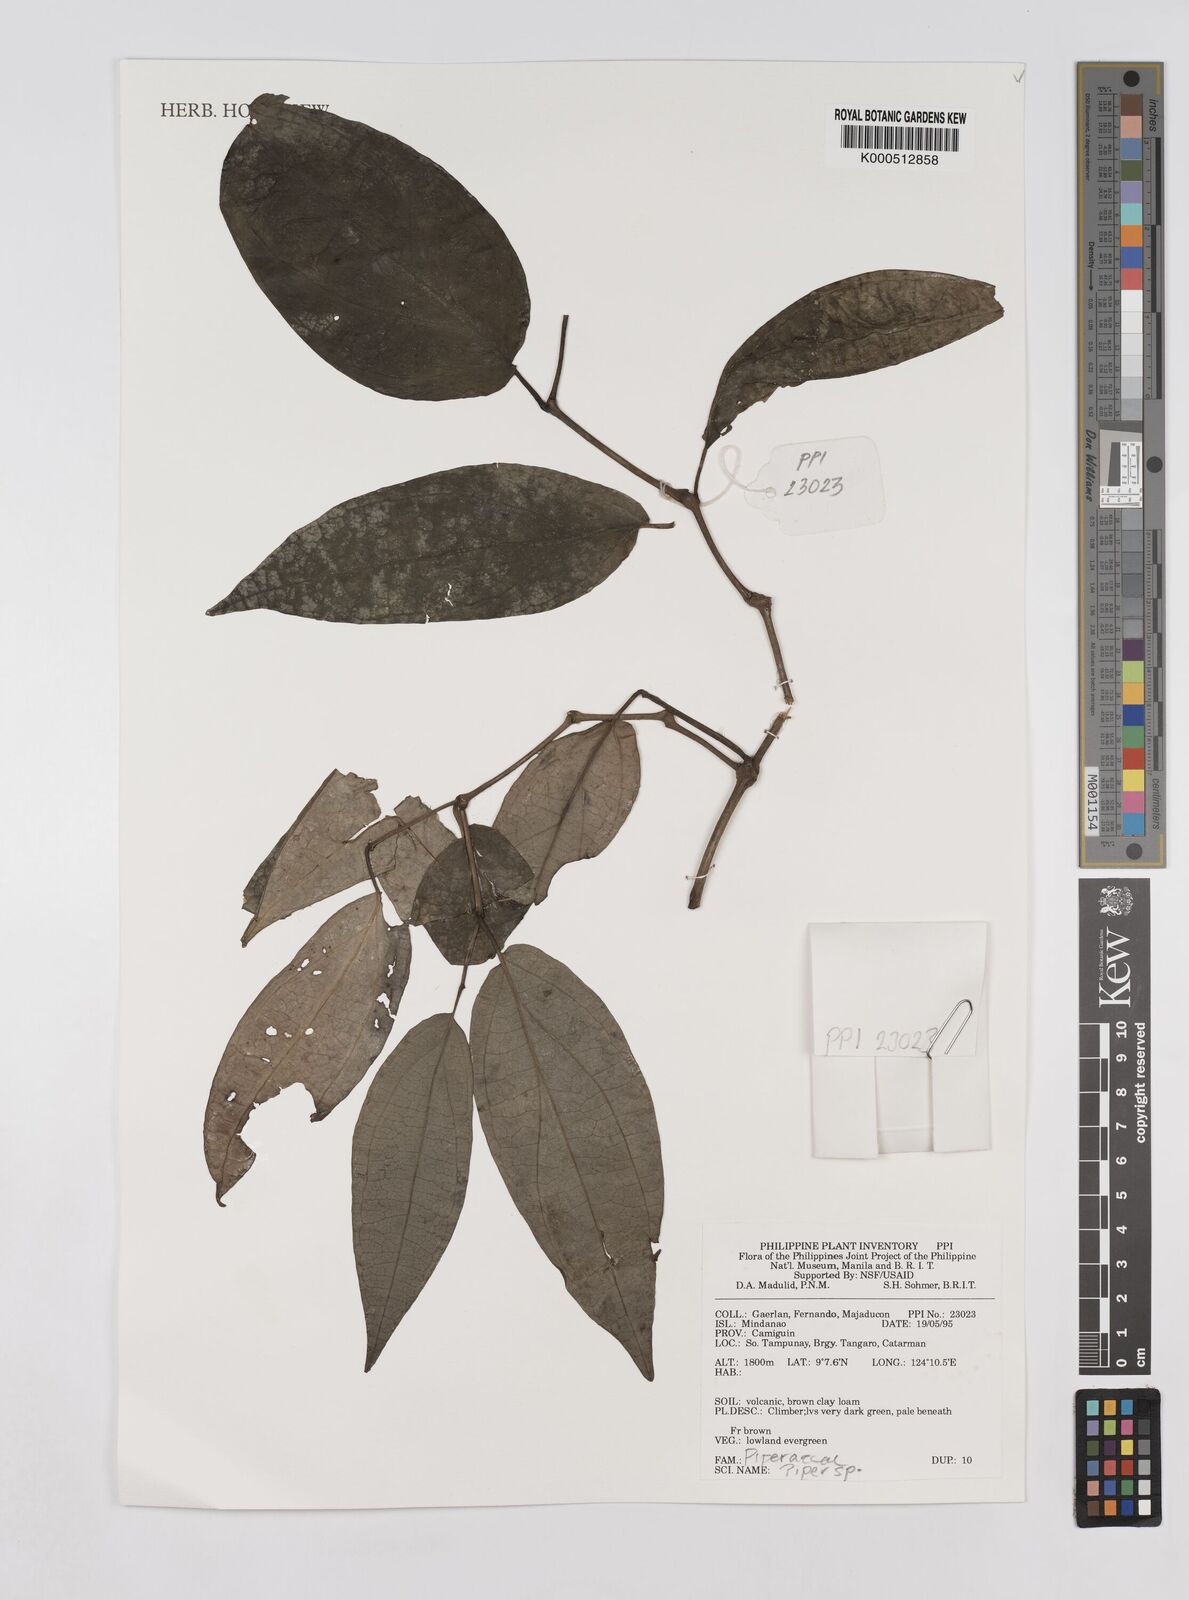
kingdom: Plantae
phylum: Tracheophyta
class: Magnoliopsida
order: Piperales
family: Piperaceae
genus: Piper
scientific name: Piper
